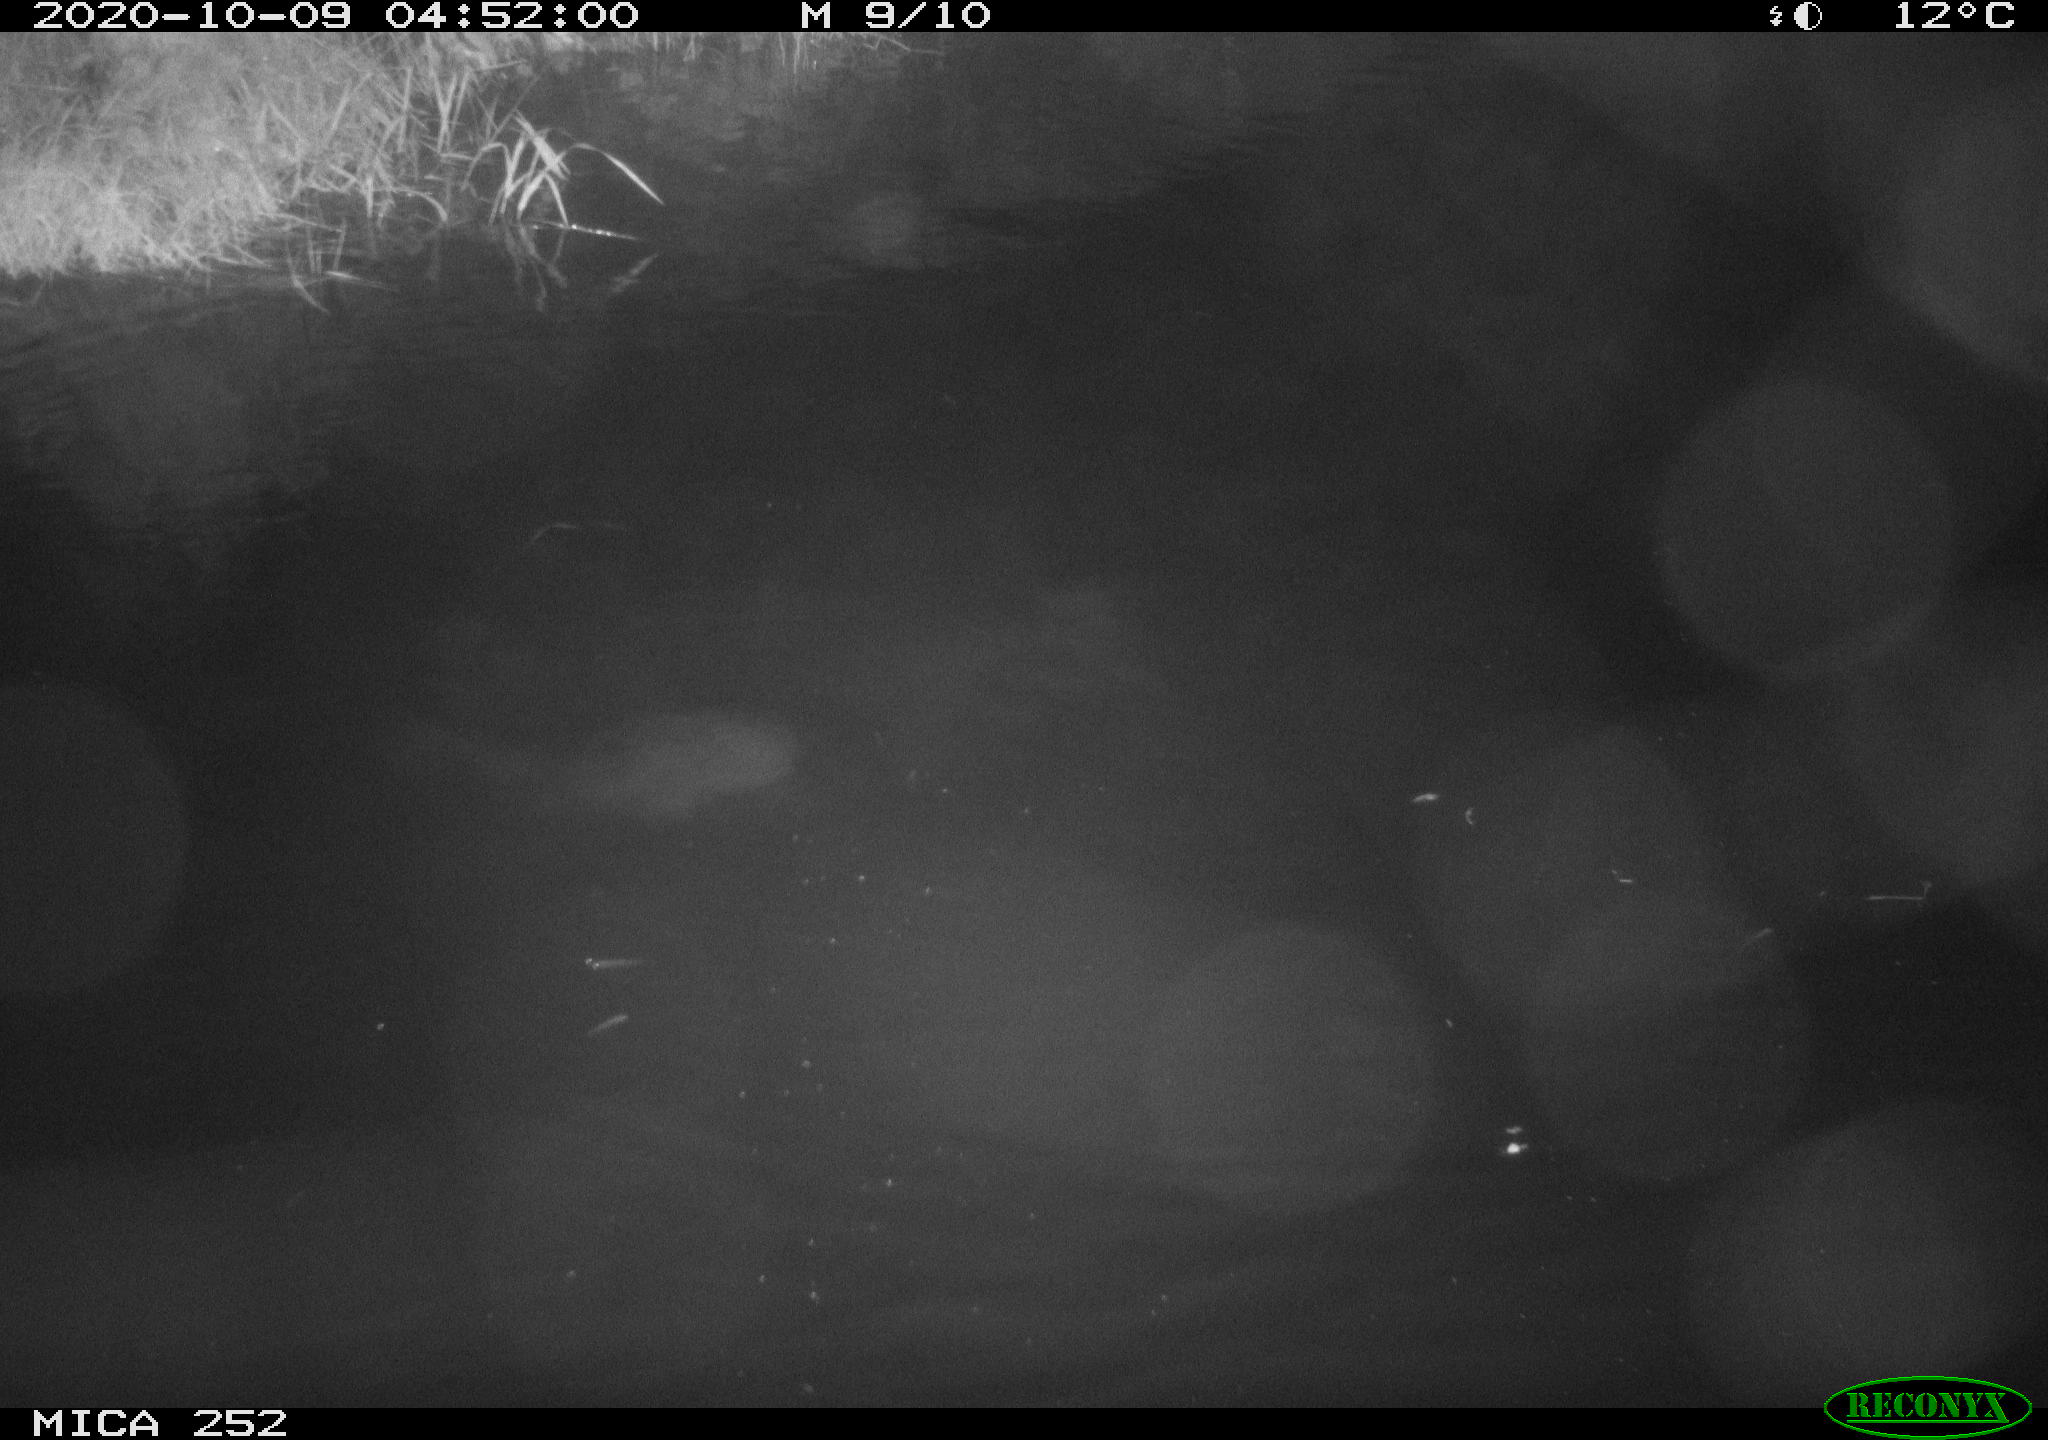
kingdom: Animalia
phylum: Chordata
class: Mammalia
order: Rodentia
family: Castoridae
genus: Castor
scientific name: Castor fiber
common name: Eurasian beaver
